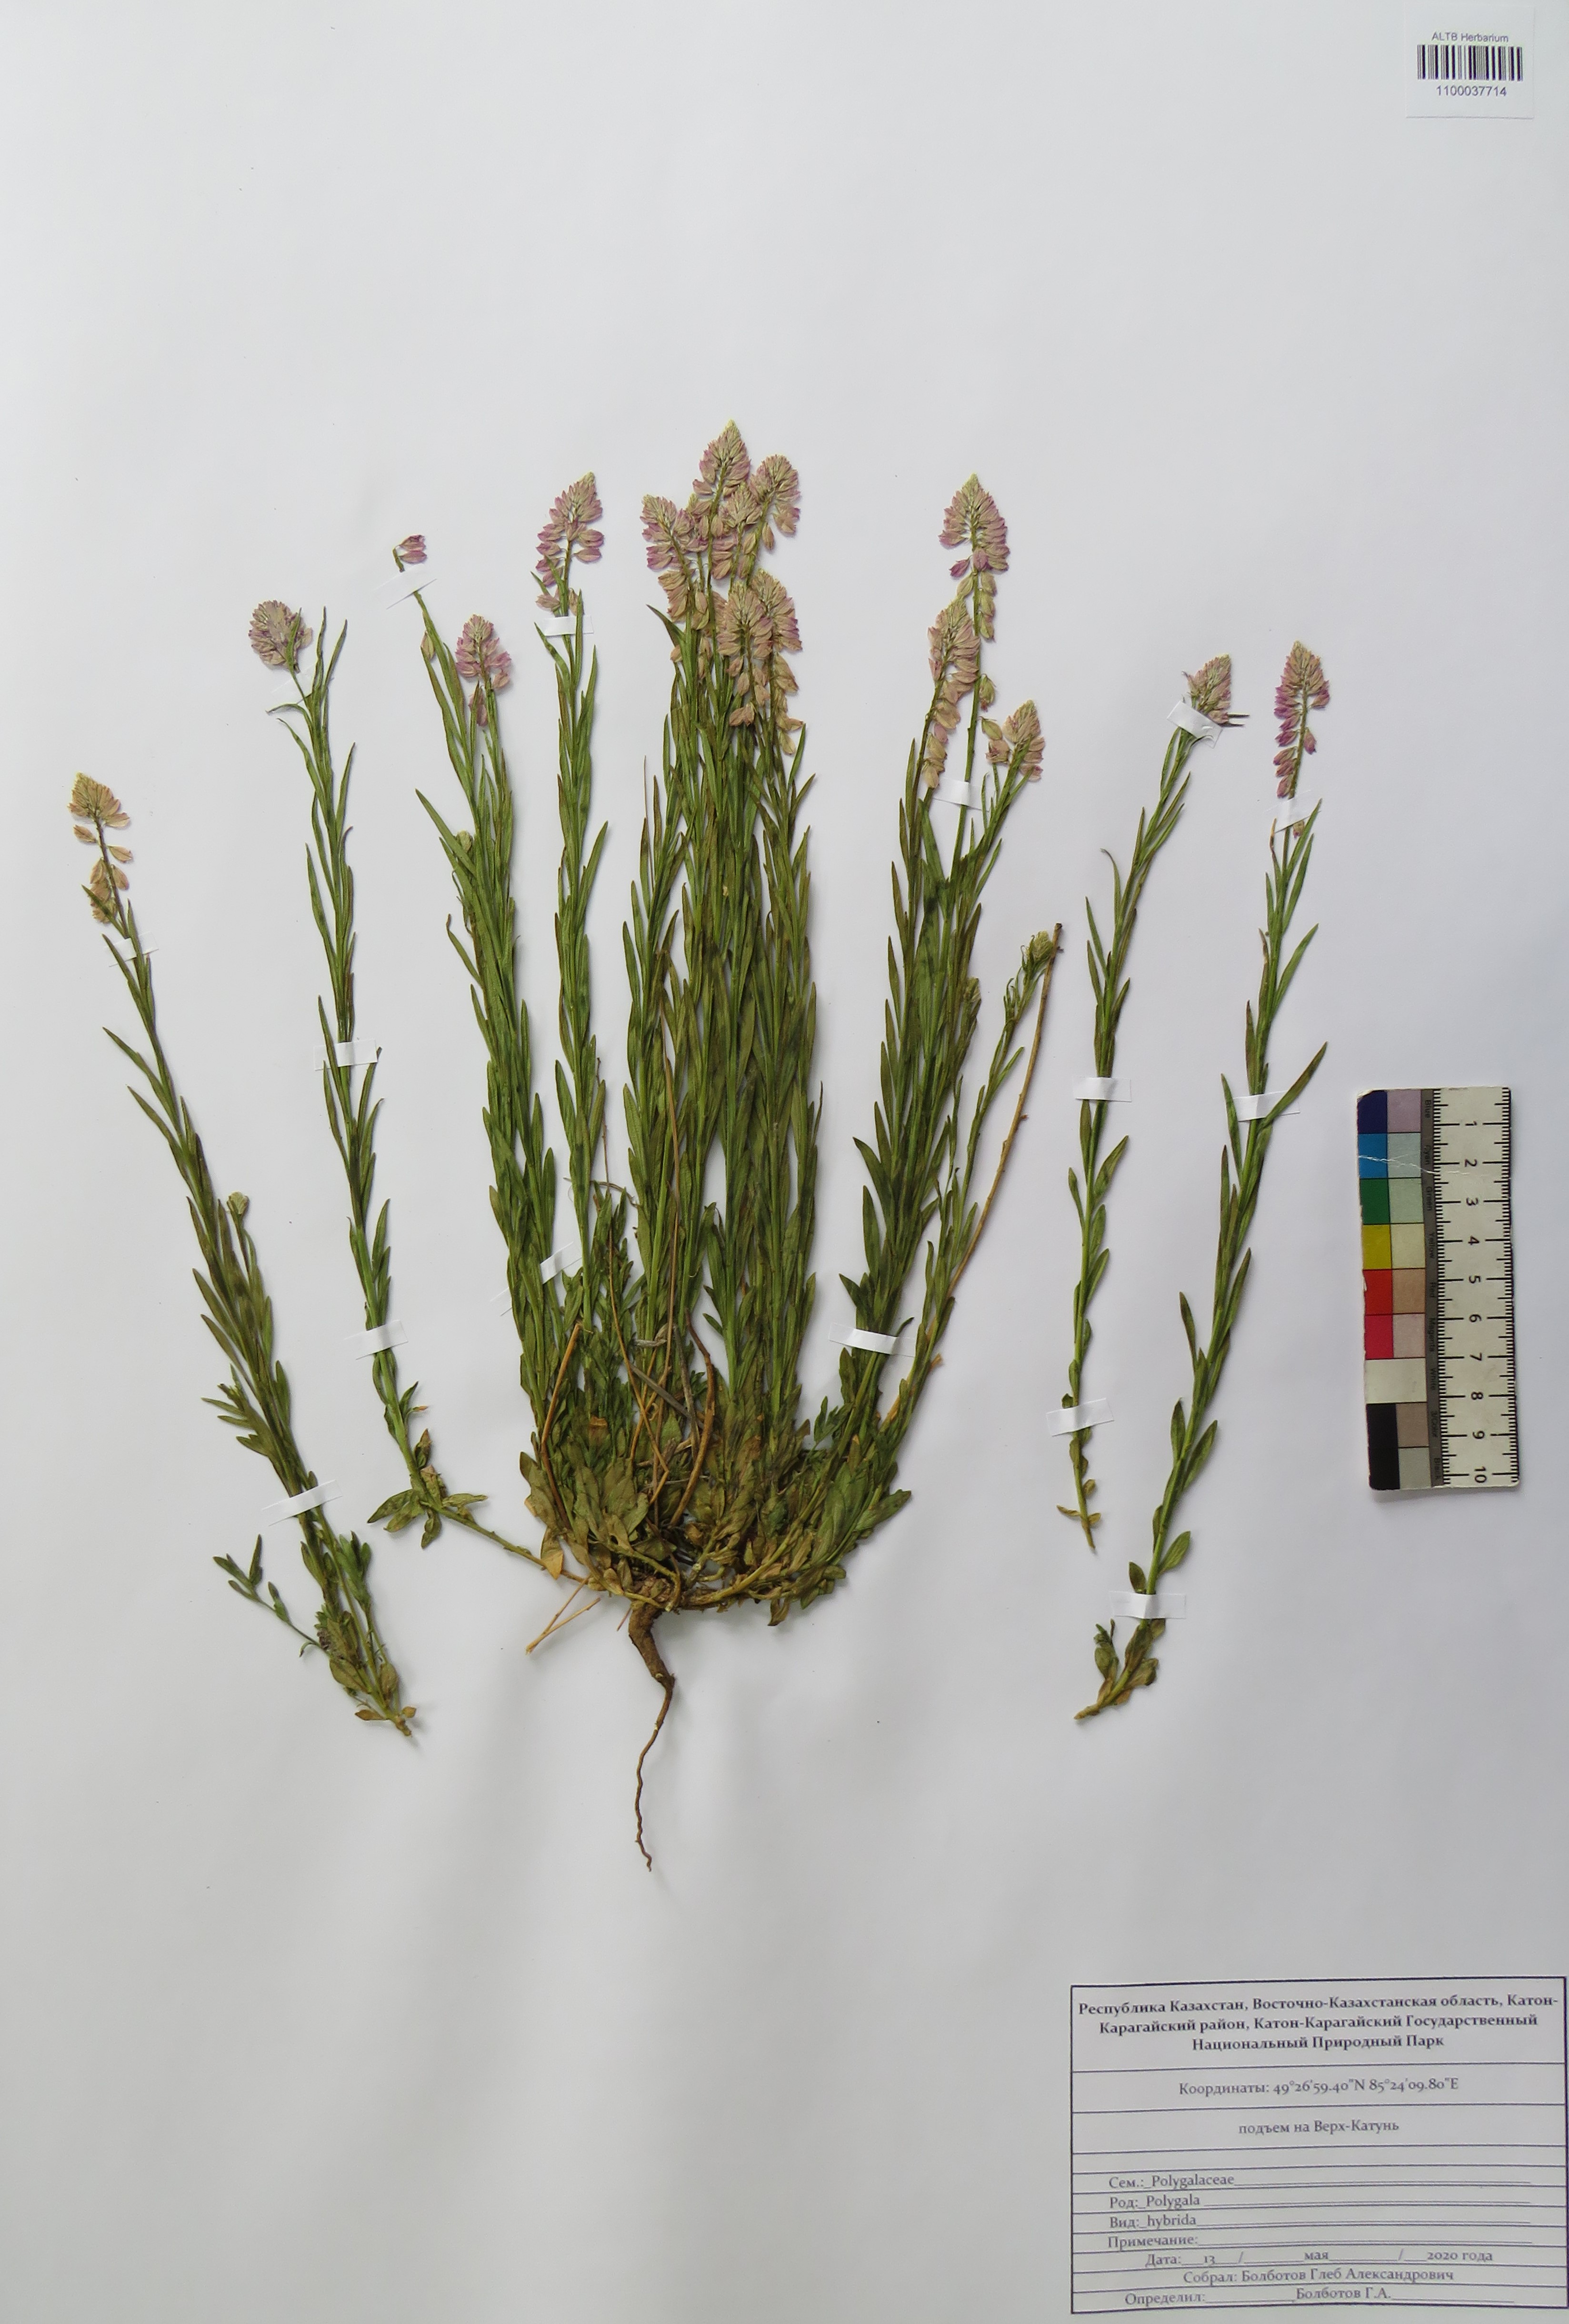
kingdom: Plantae
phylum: Tracheophyta
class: Magnoliopsida
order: Fabales
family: Polygalaceae
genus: Polygala
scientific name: Polygala comosa
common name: Tufted milkwort
